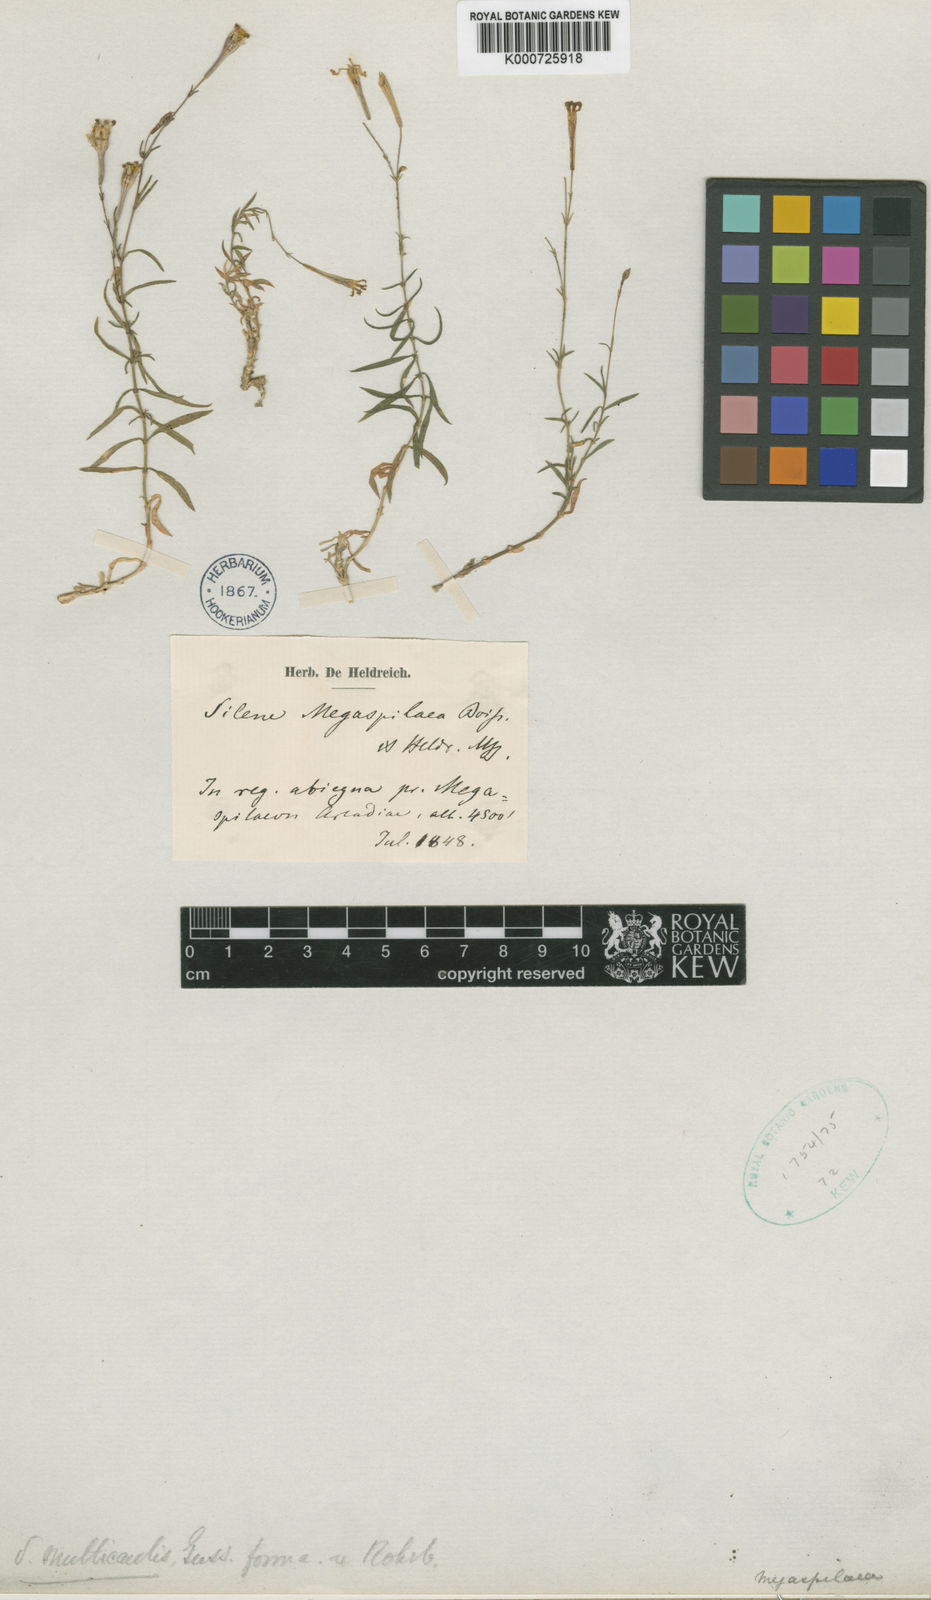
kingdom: Plantae
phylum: Tracheophyta
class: Magnoliopsida
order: Caryophyllales
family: Caryophyllaceae
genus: Silene
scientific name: Silene multicaulis
